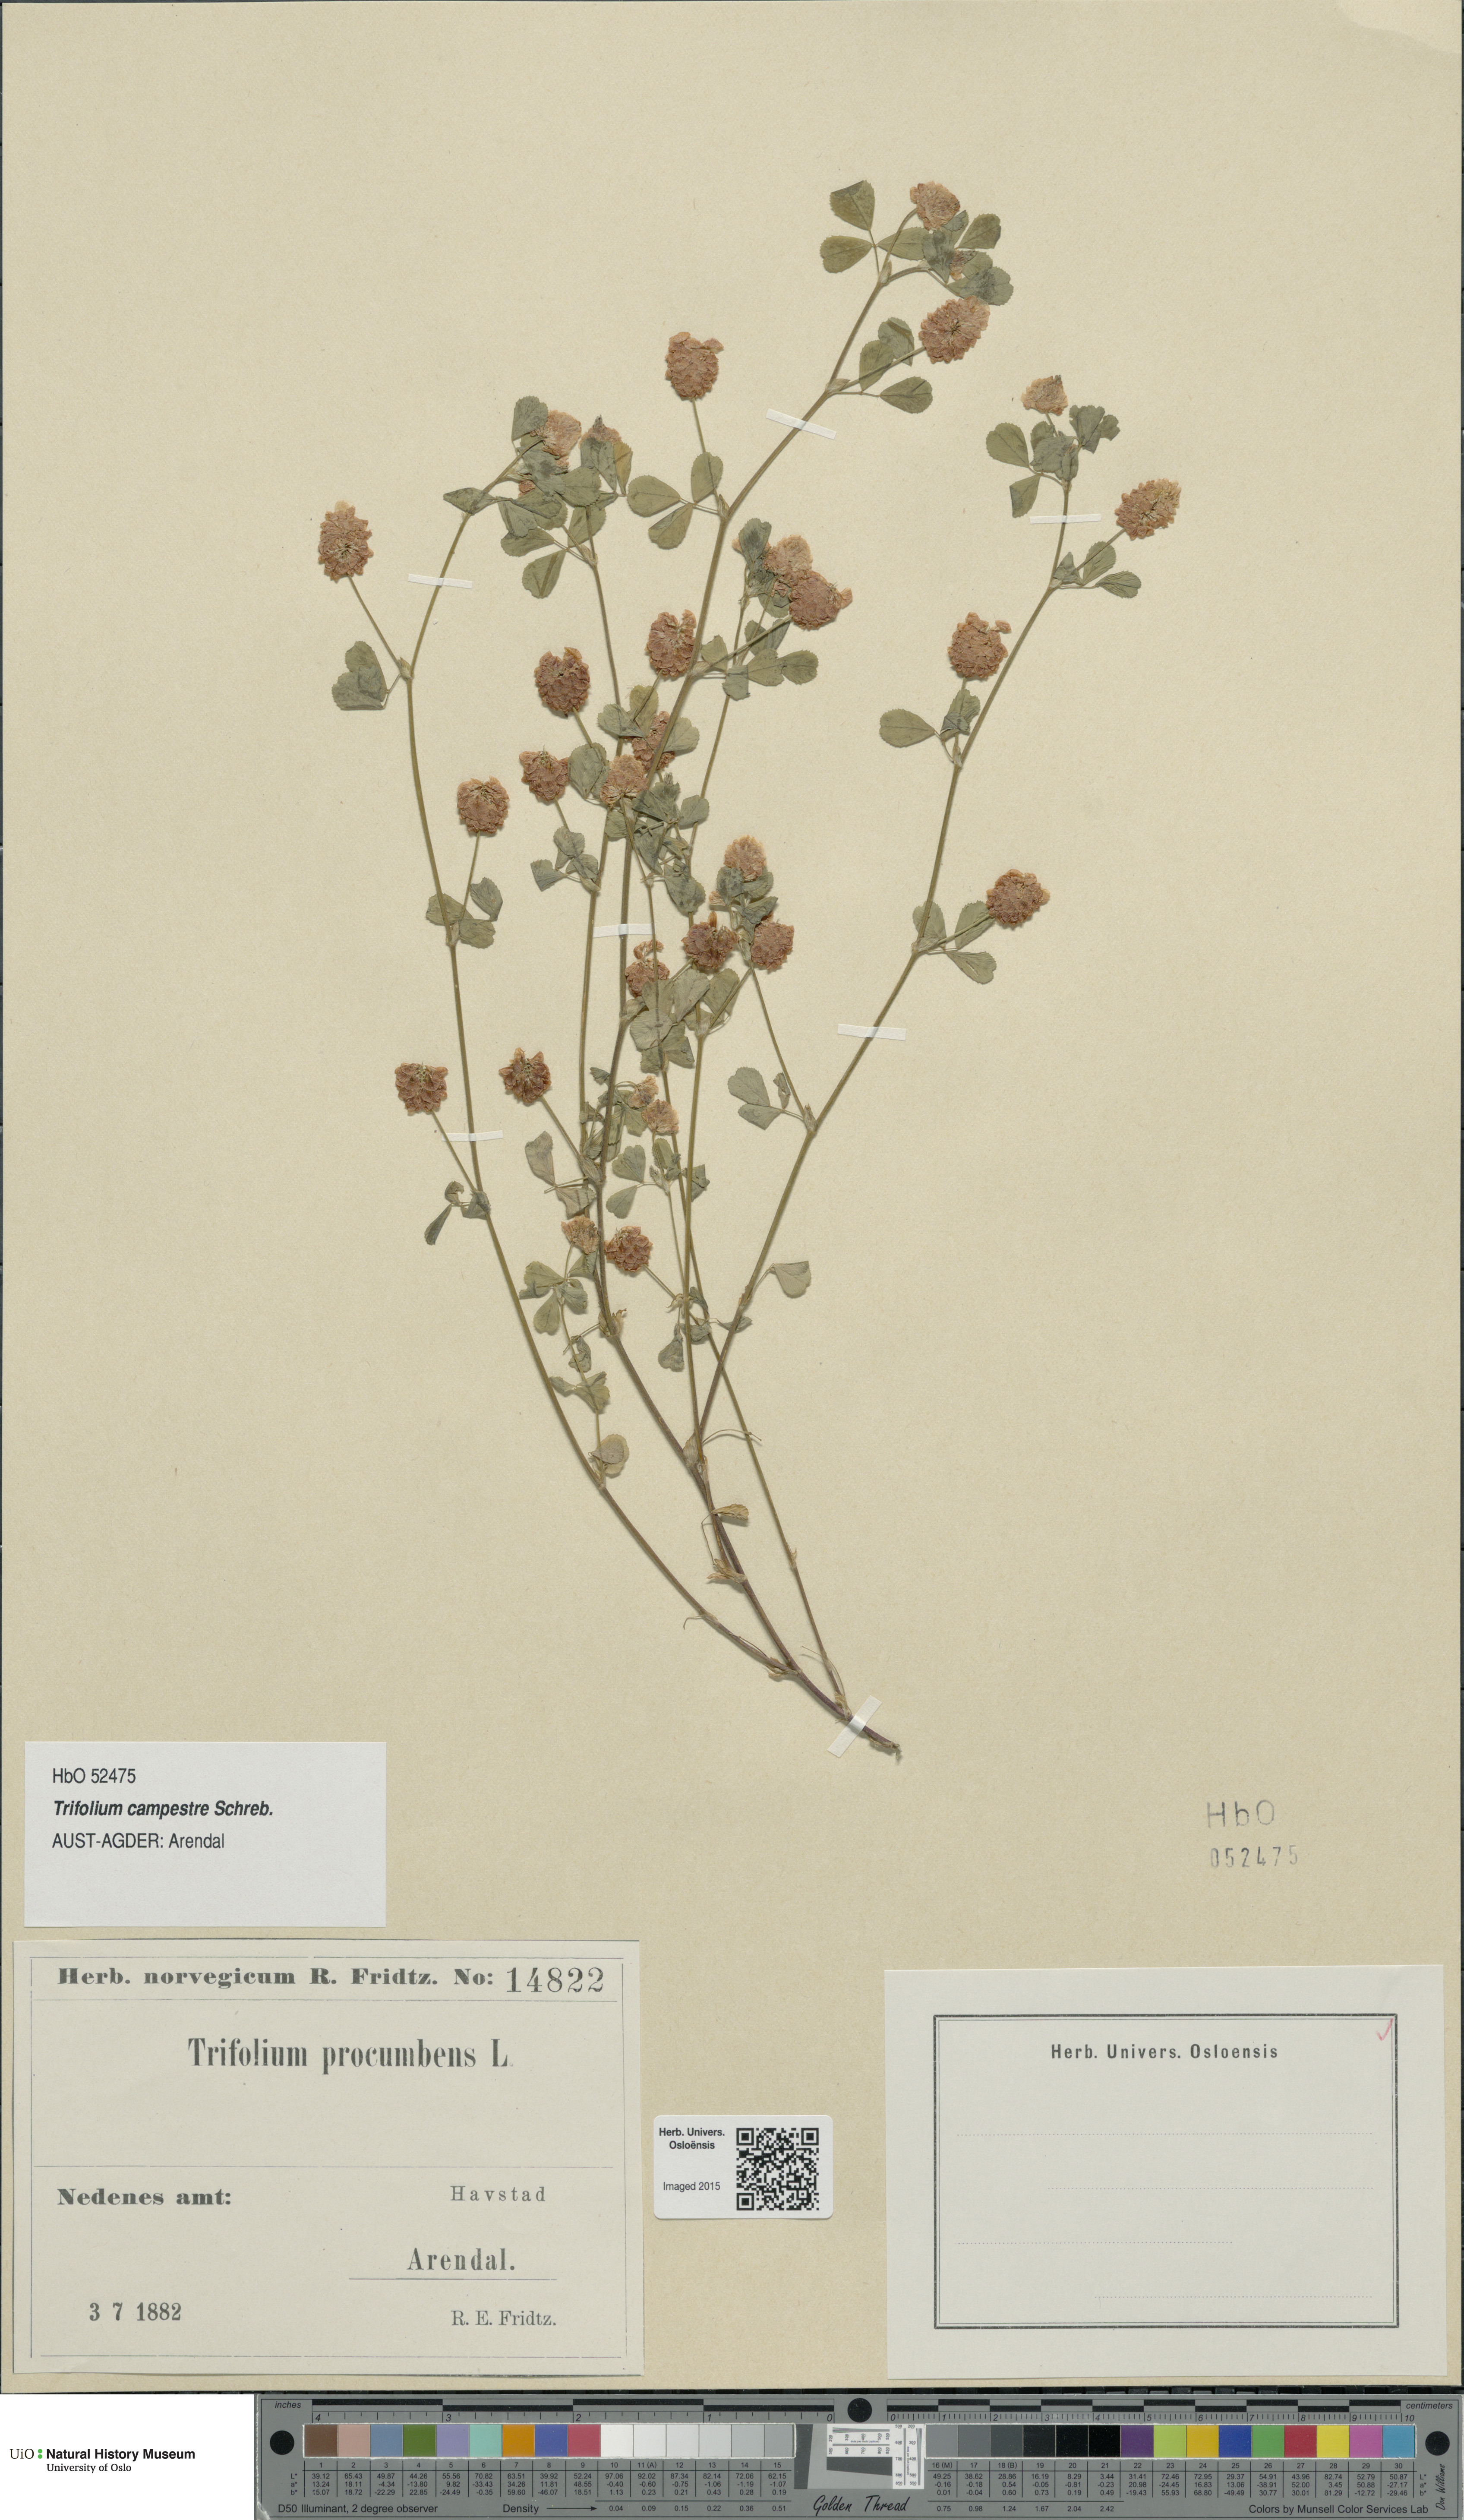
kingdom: Plantae
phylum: Tracheophyta
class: Magnoliopsida
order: Fabales
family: Fabaceae
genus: Trifolium
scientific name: Trifolium campestre
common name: Field clover
